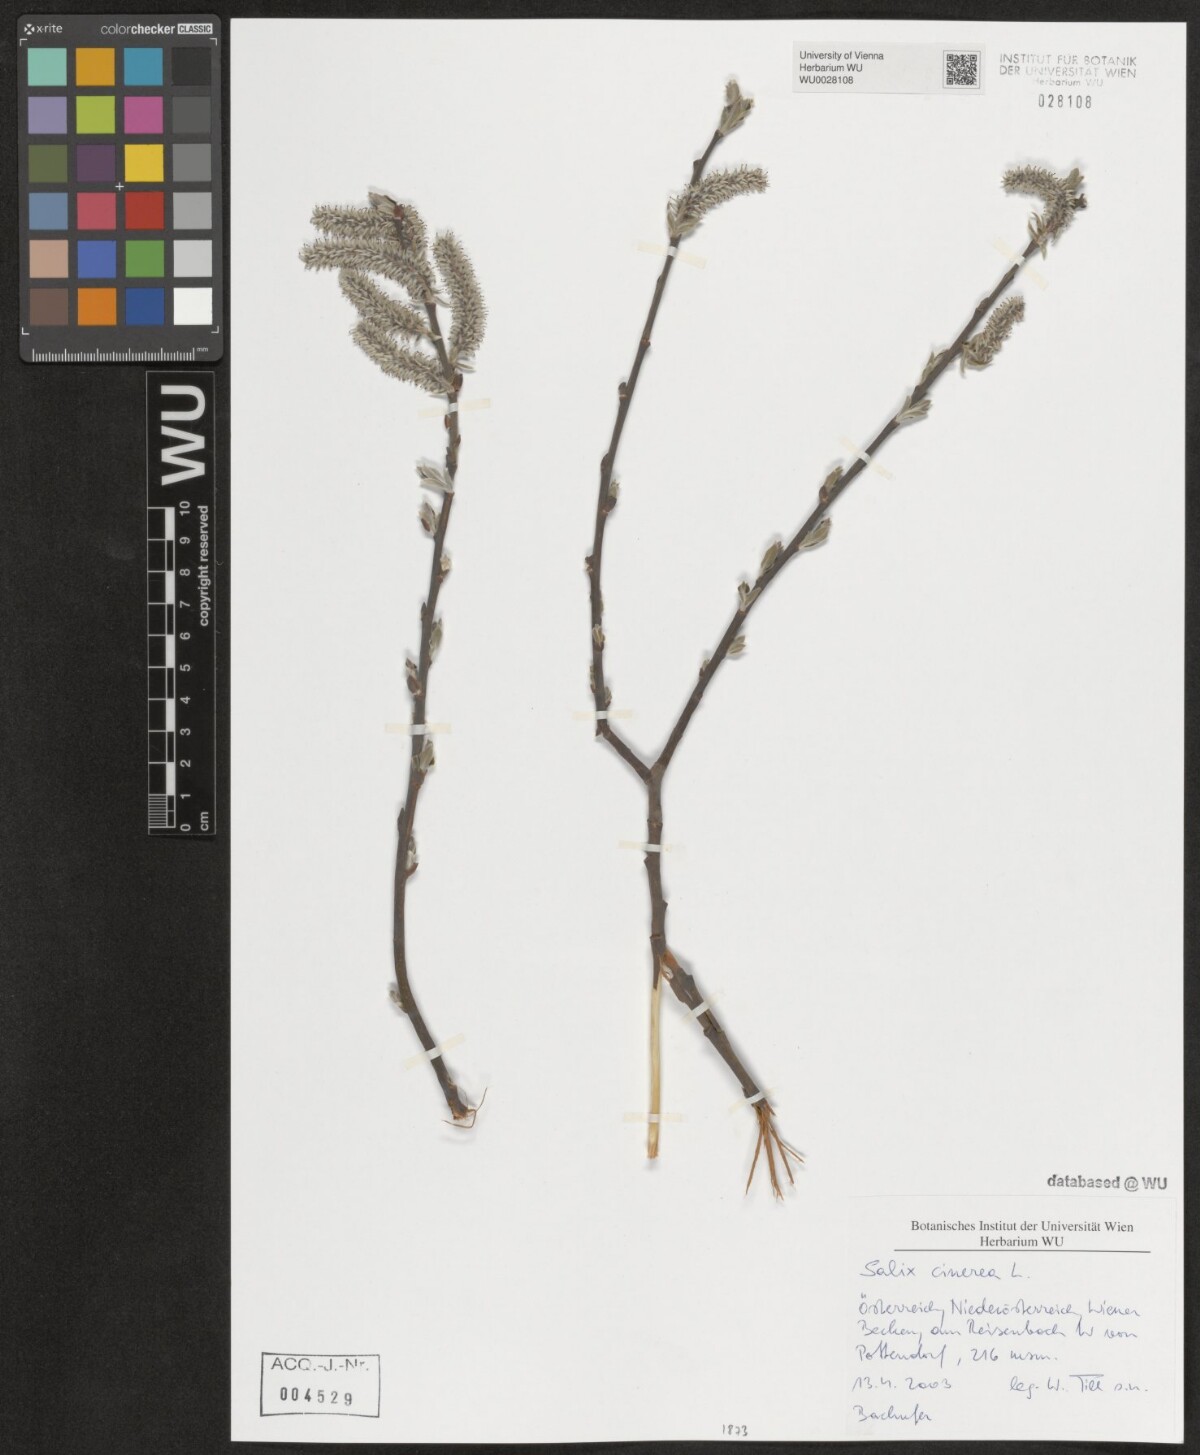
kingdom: Plantae
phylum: Tracheophyta
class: Magnoliopsida
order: Malpighiales
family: Salicaceae
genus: Salix
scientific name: Salix cinerea
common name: Common sallow
